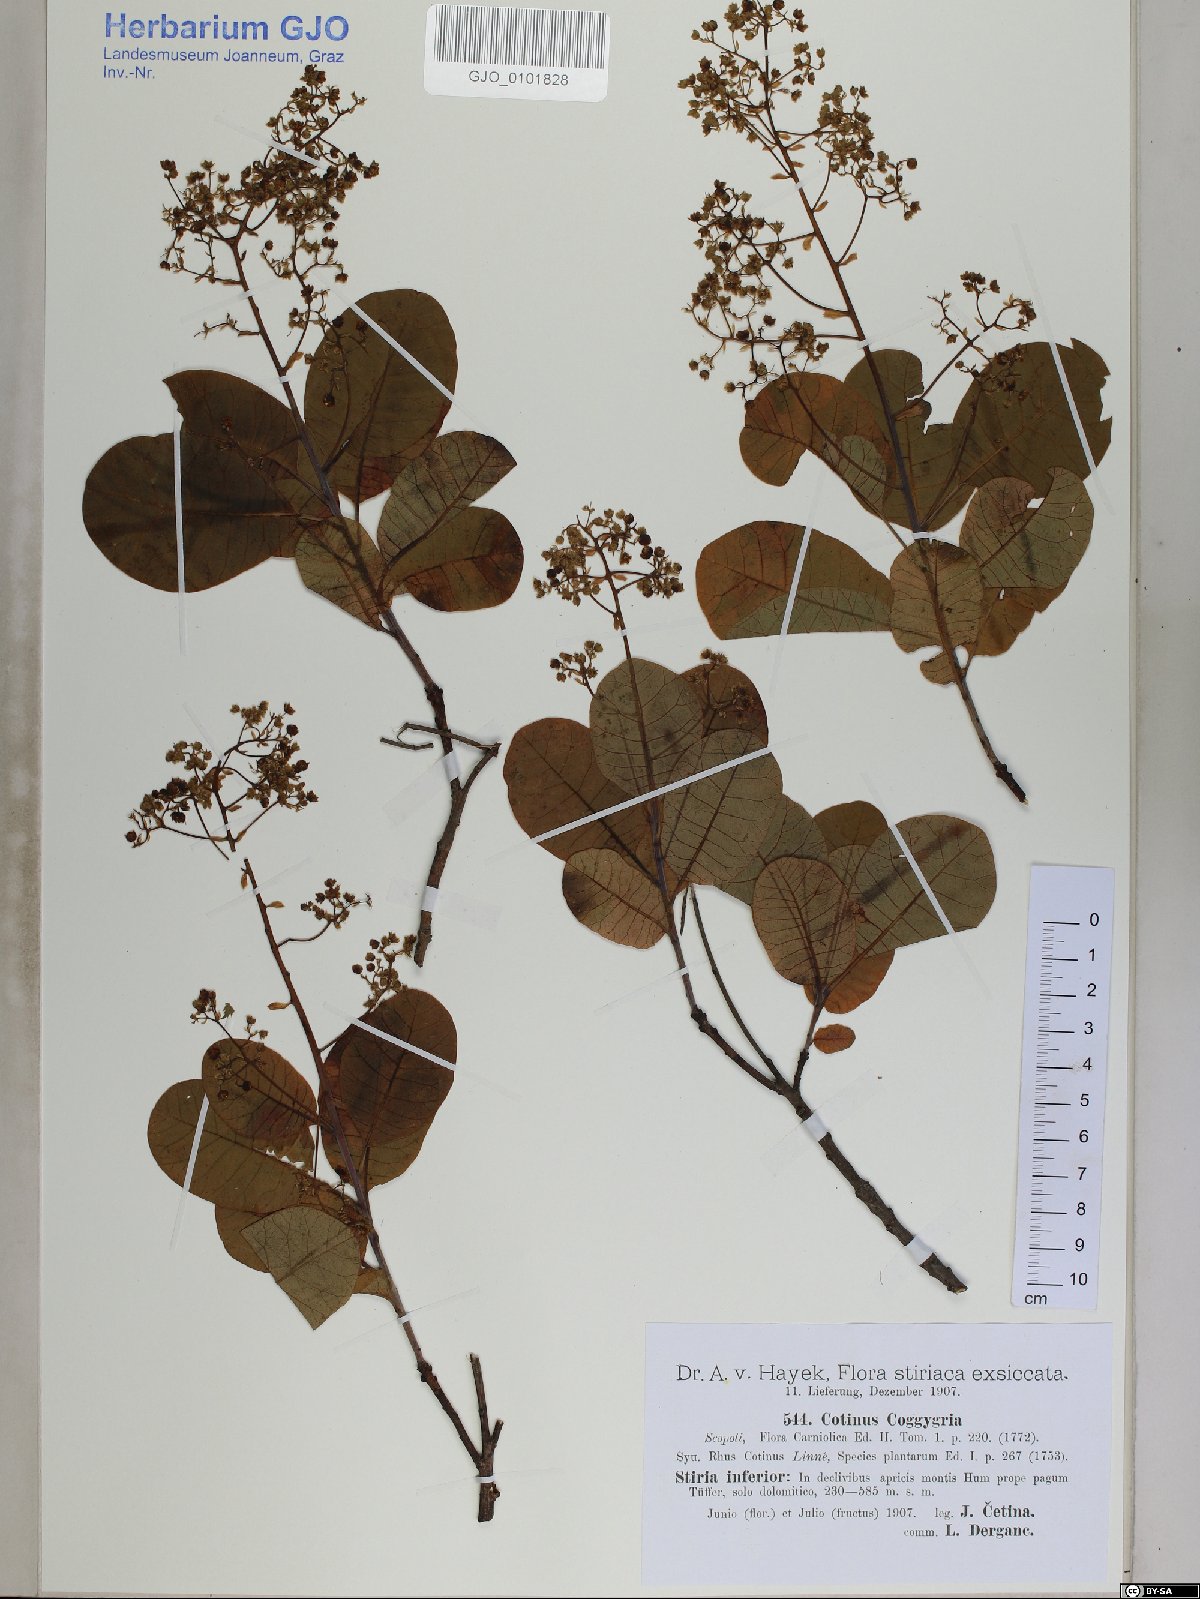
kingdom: Plantae
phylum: Tracheophyta
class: Magnoliopsida
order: Sapindales
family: Anacardiaceae
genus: Cotinus
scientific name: Cotinus coggygria
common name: Smoke-tree
